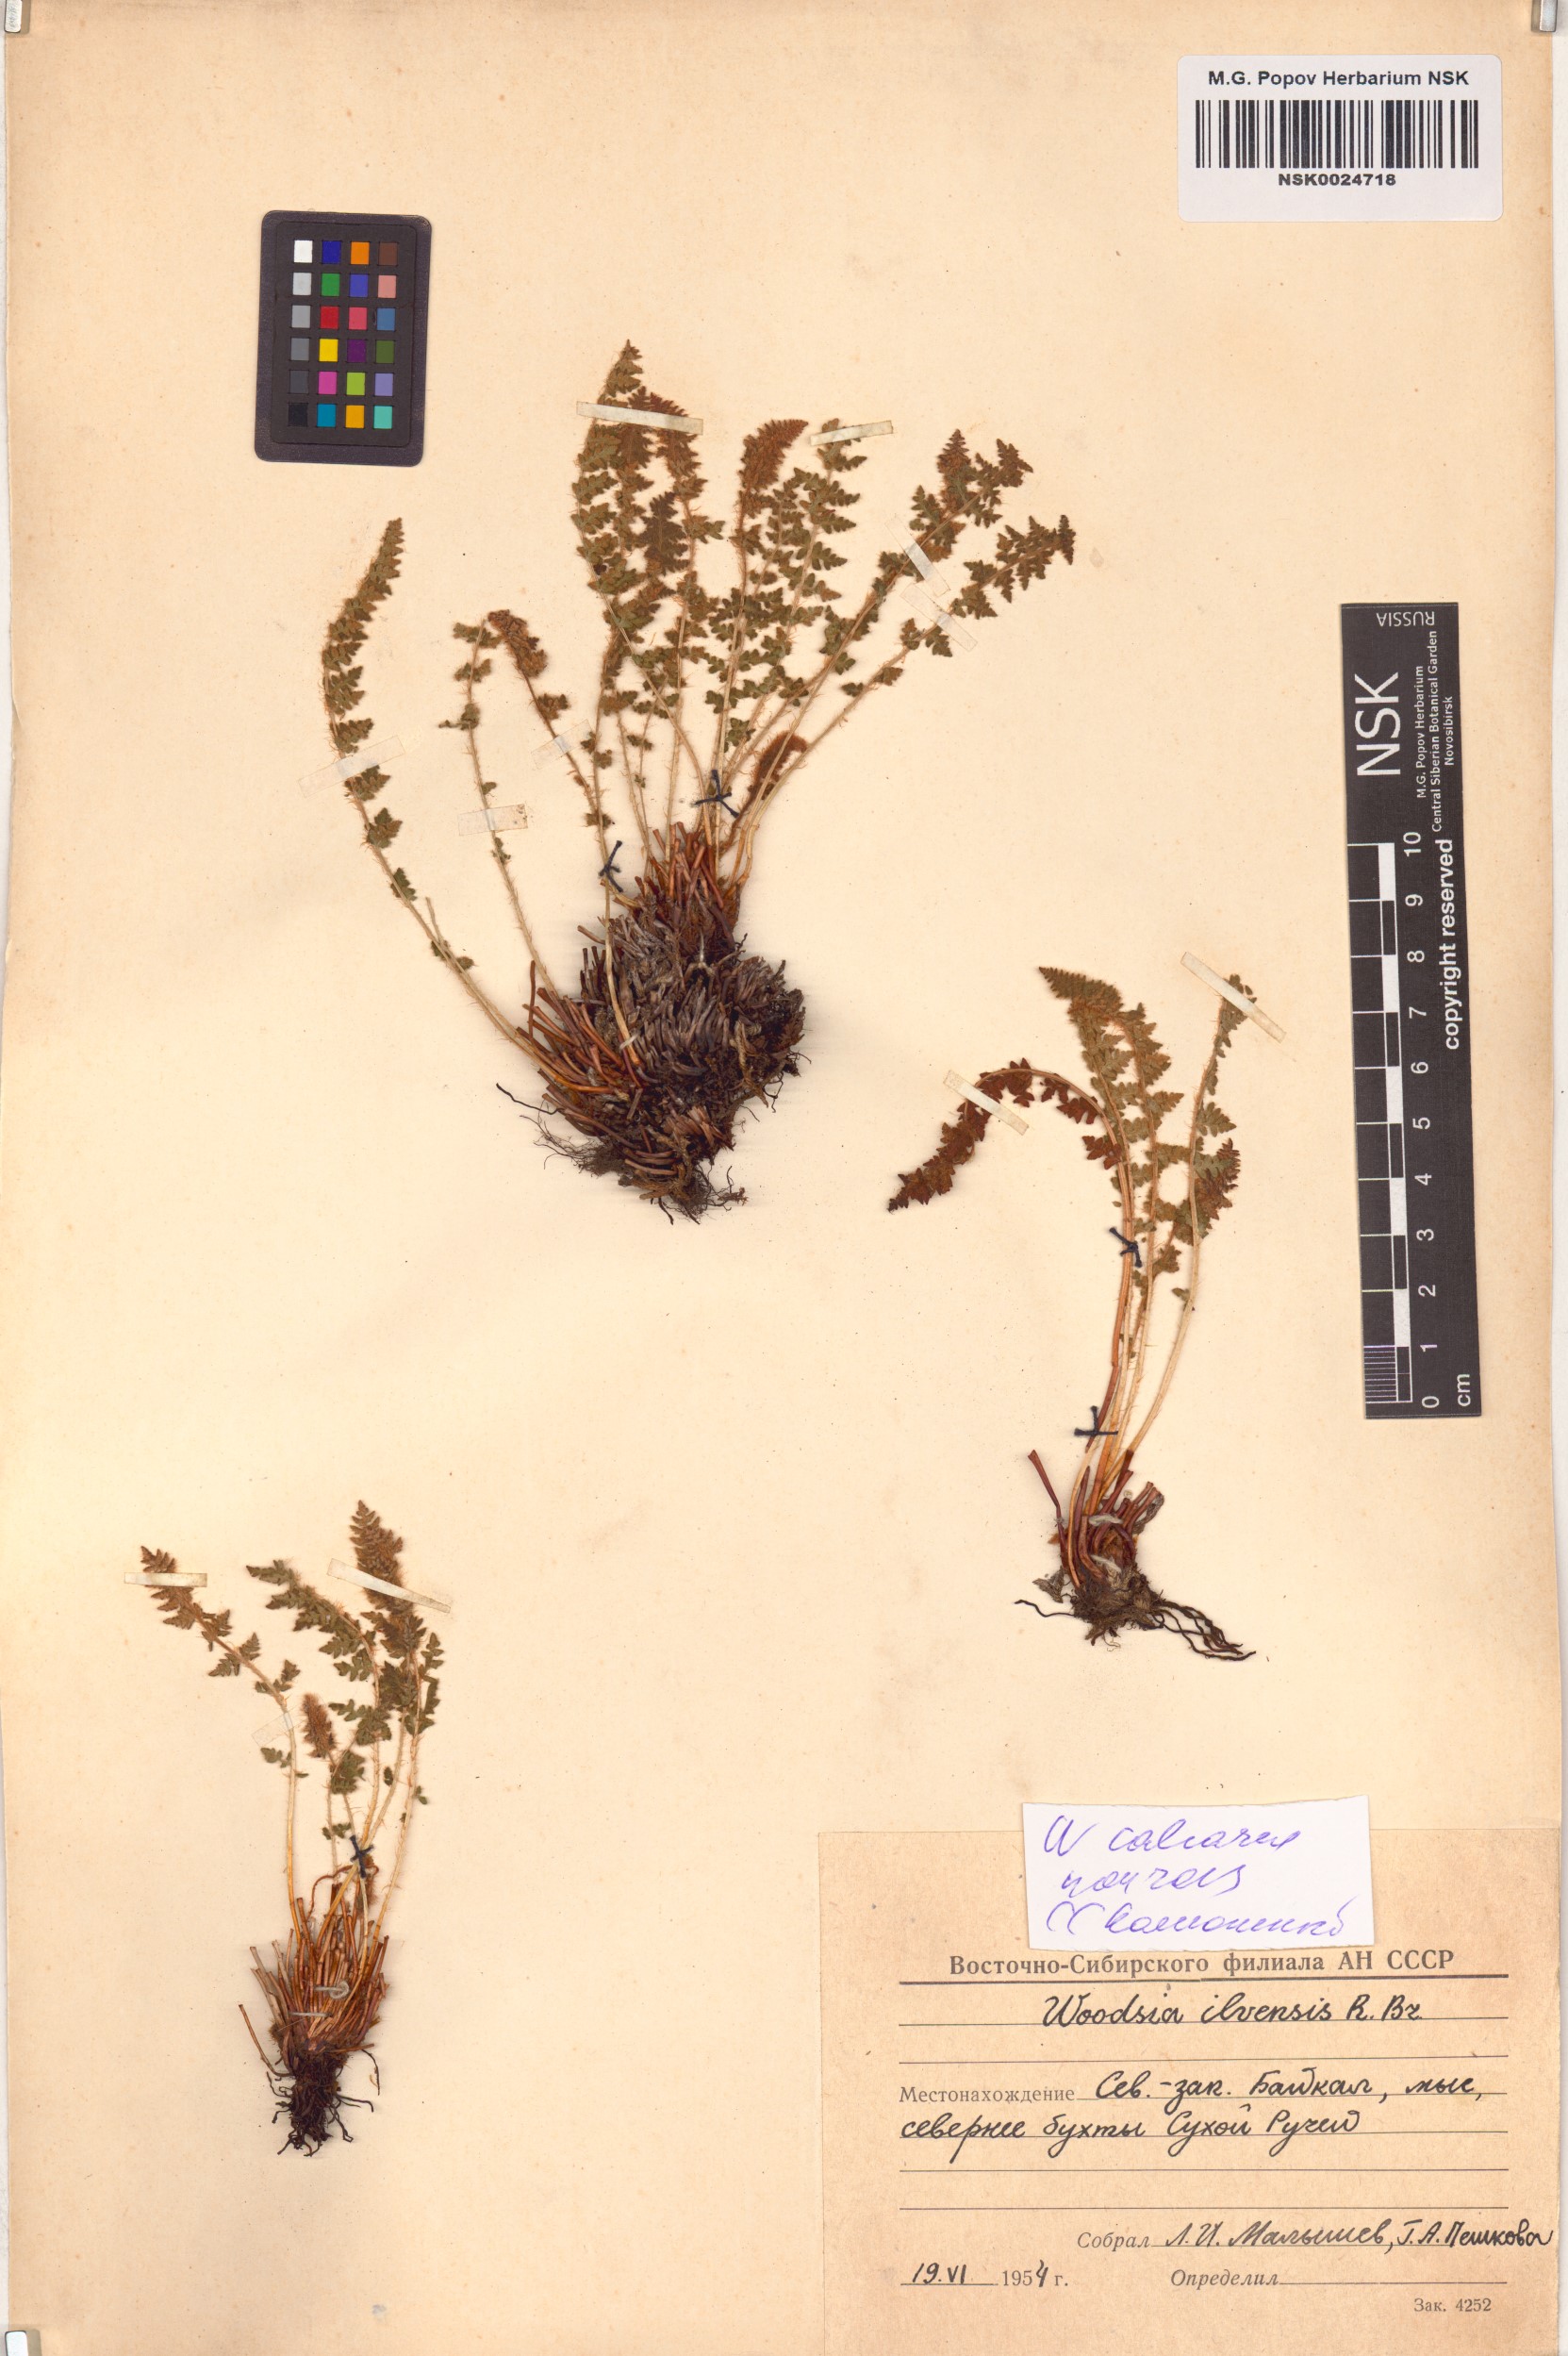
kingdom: Plantae
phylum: Tracheophyta
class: Polypodiopsida
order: Polypodiales
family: Woodsiaceae
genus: Woodsia
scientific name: Woodsia calcarea
